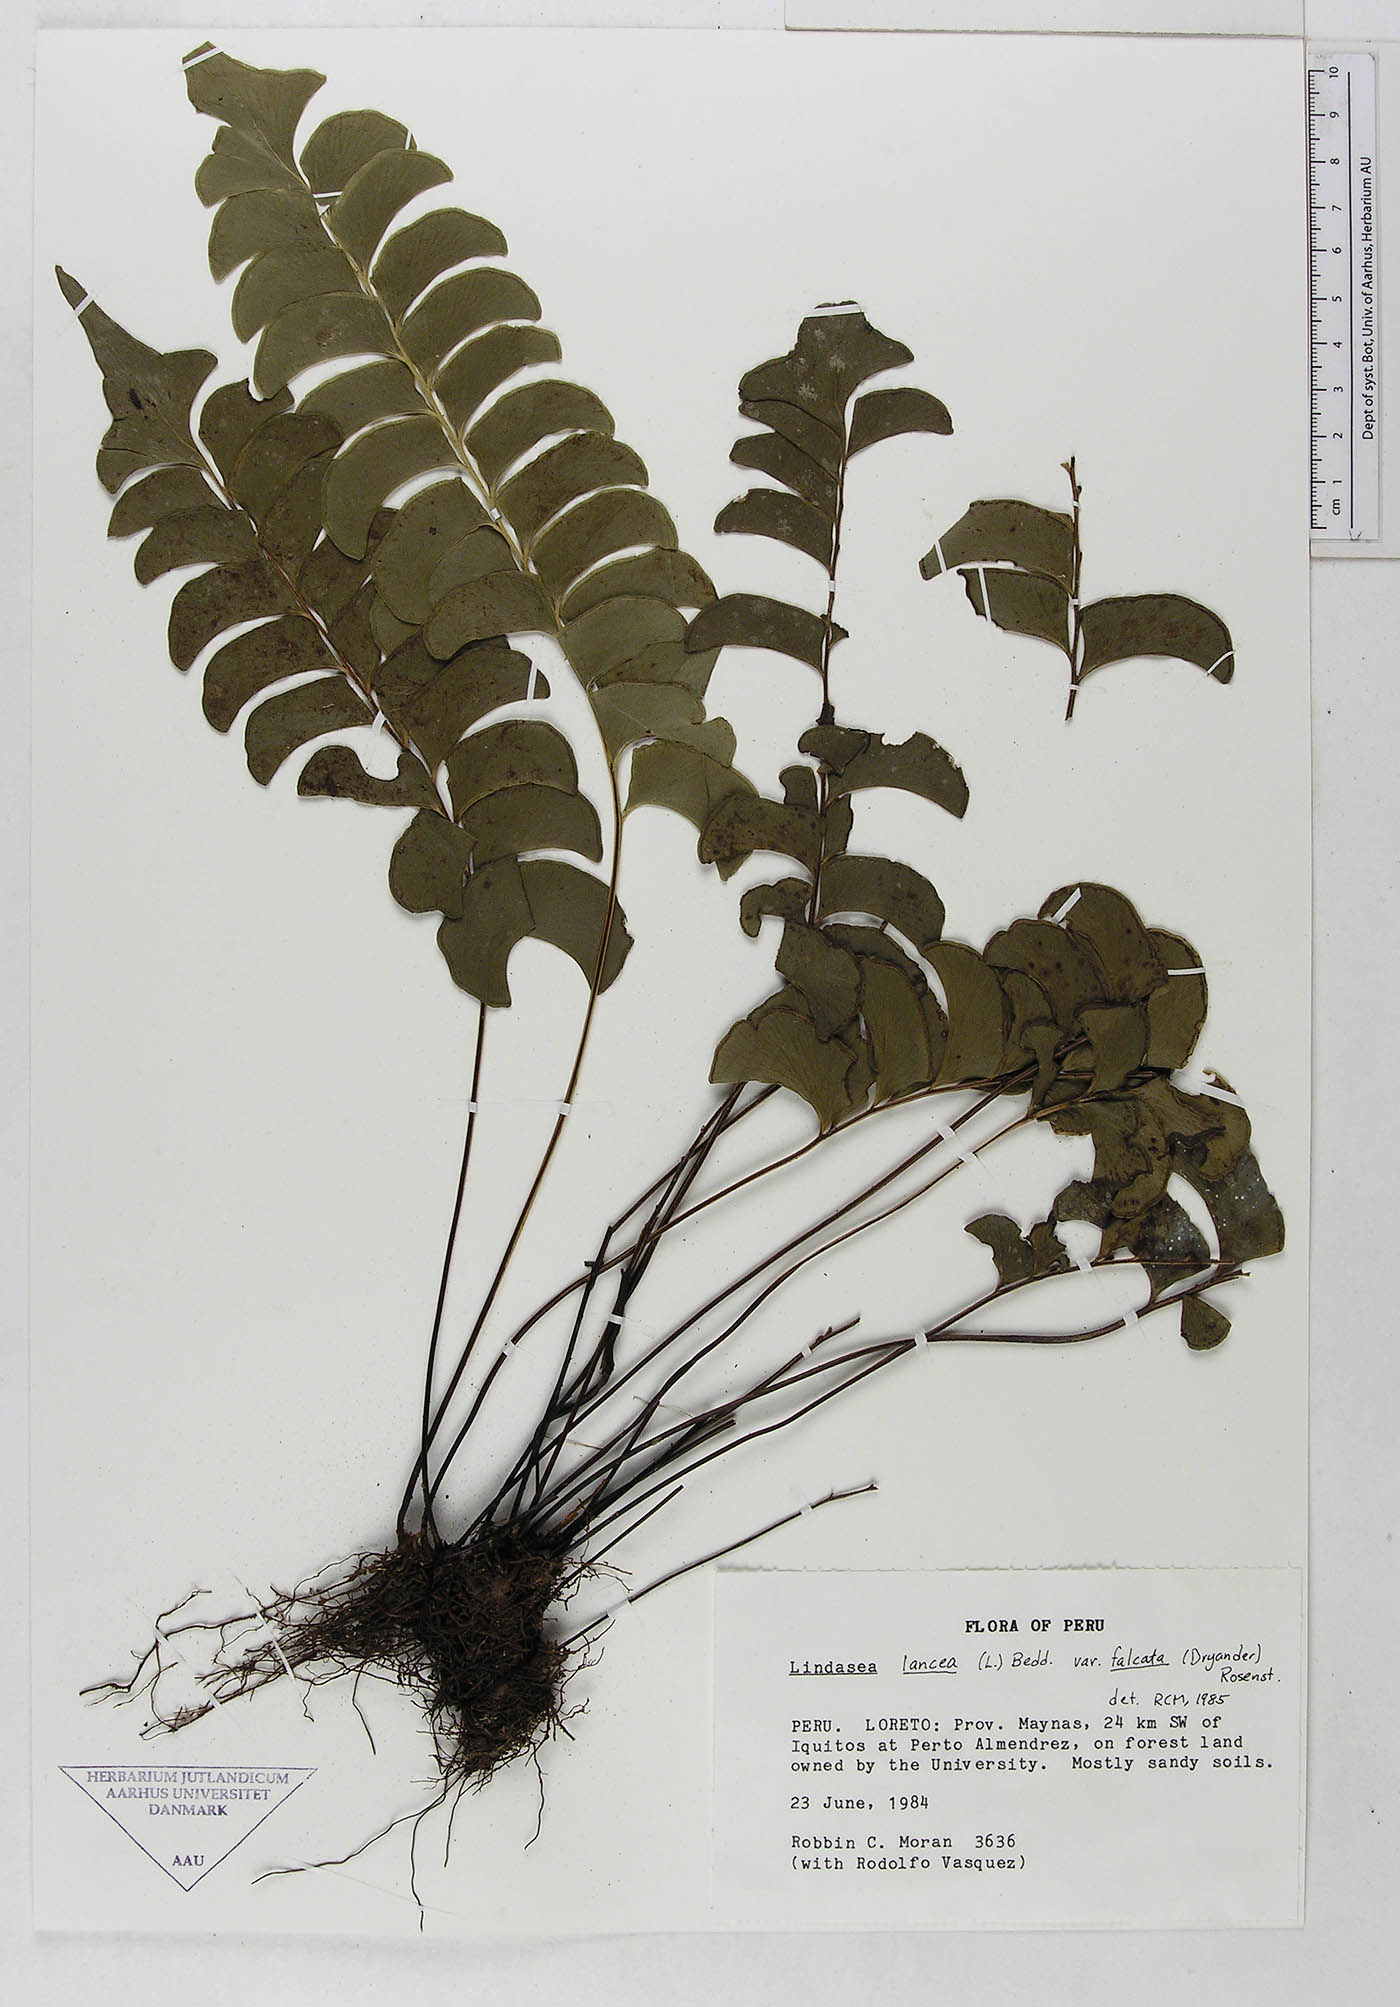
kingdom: Plantae
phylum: Tracheophyta
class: Polypodiopsida
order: Polypodiales
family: Dennstaedtiaceae
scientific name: Dennstaedtiaceae
